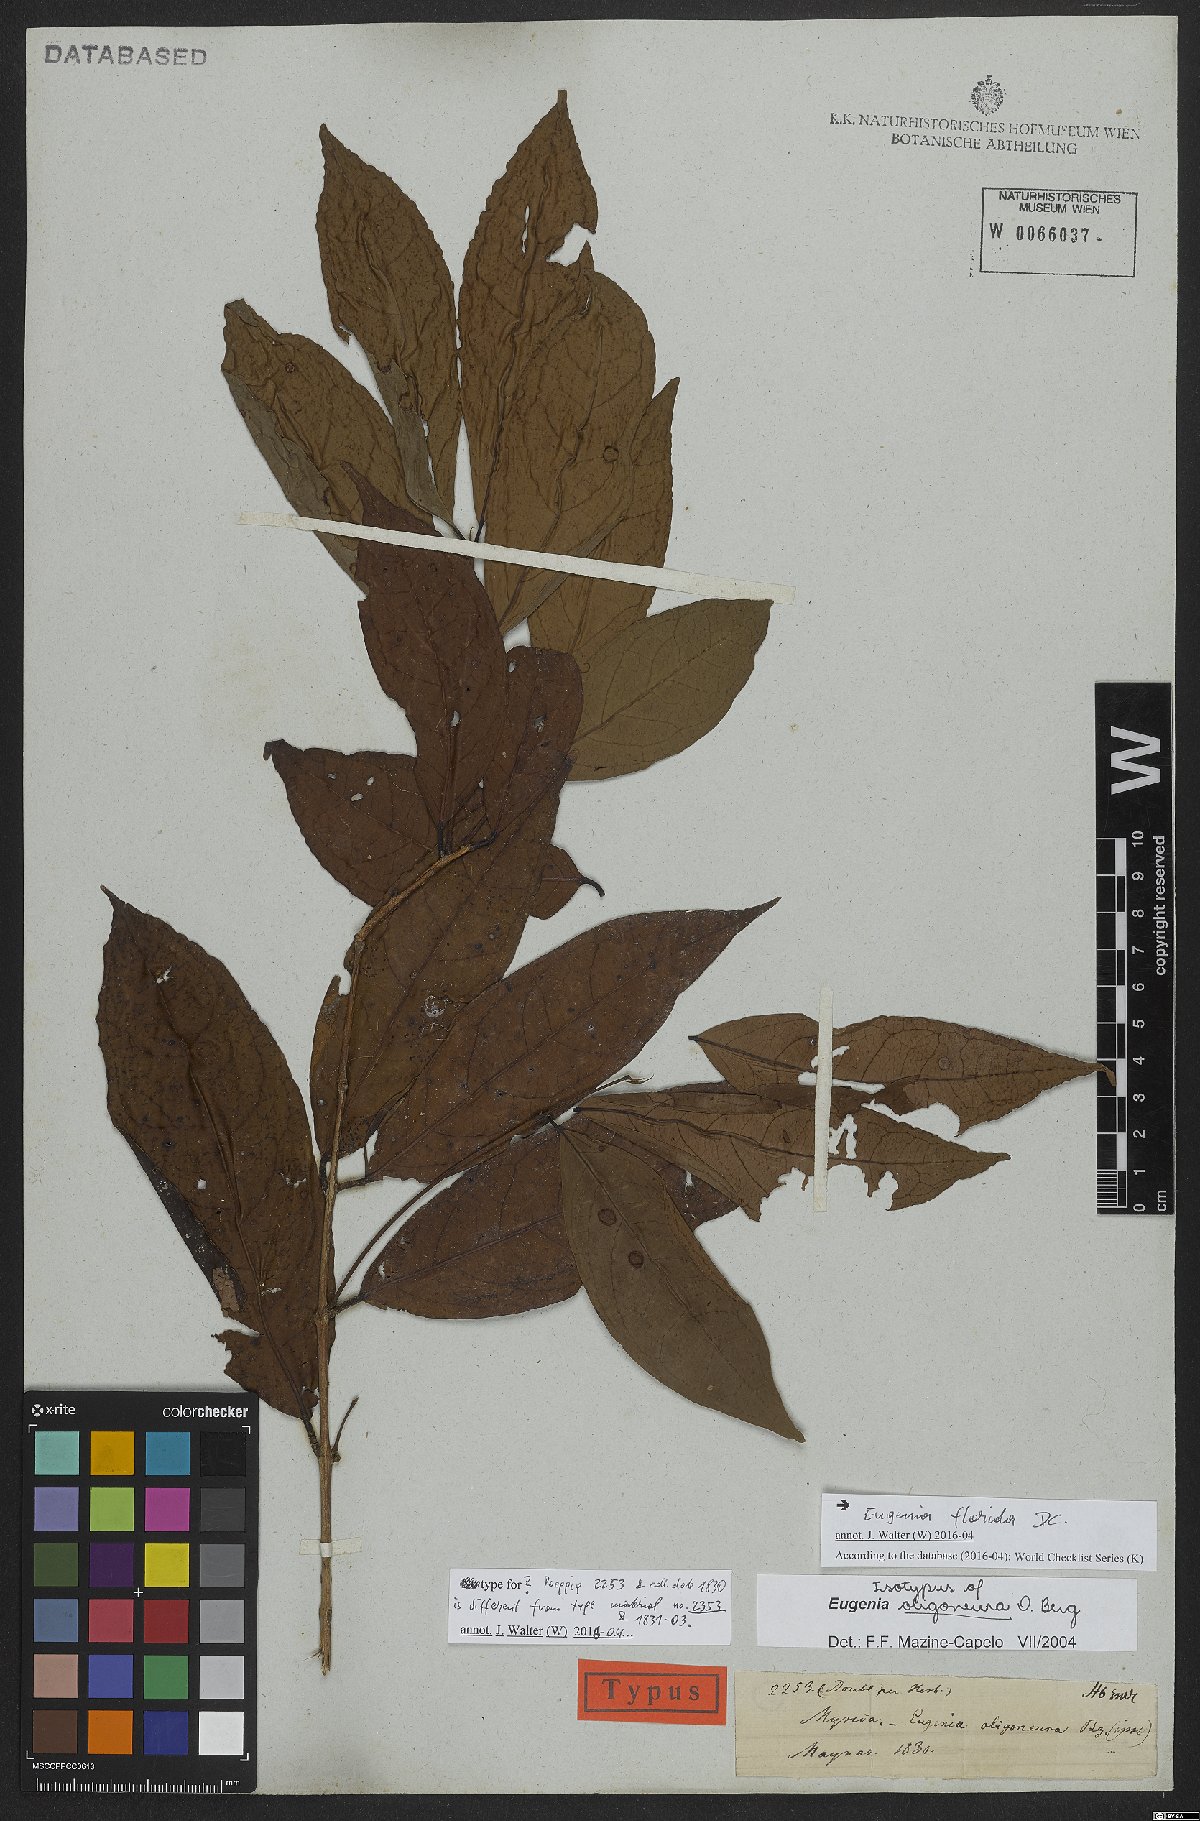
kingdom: Plantae
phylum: Tracheophyta
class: Magnoliopsida
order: Myrtales
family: Myrtaceae
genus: Eugenia
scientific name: Eugenia florida
